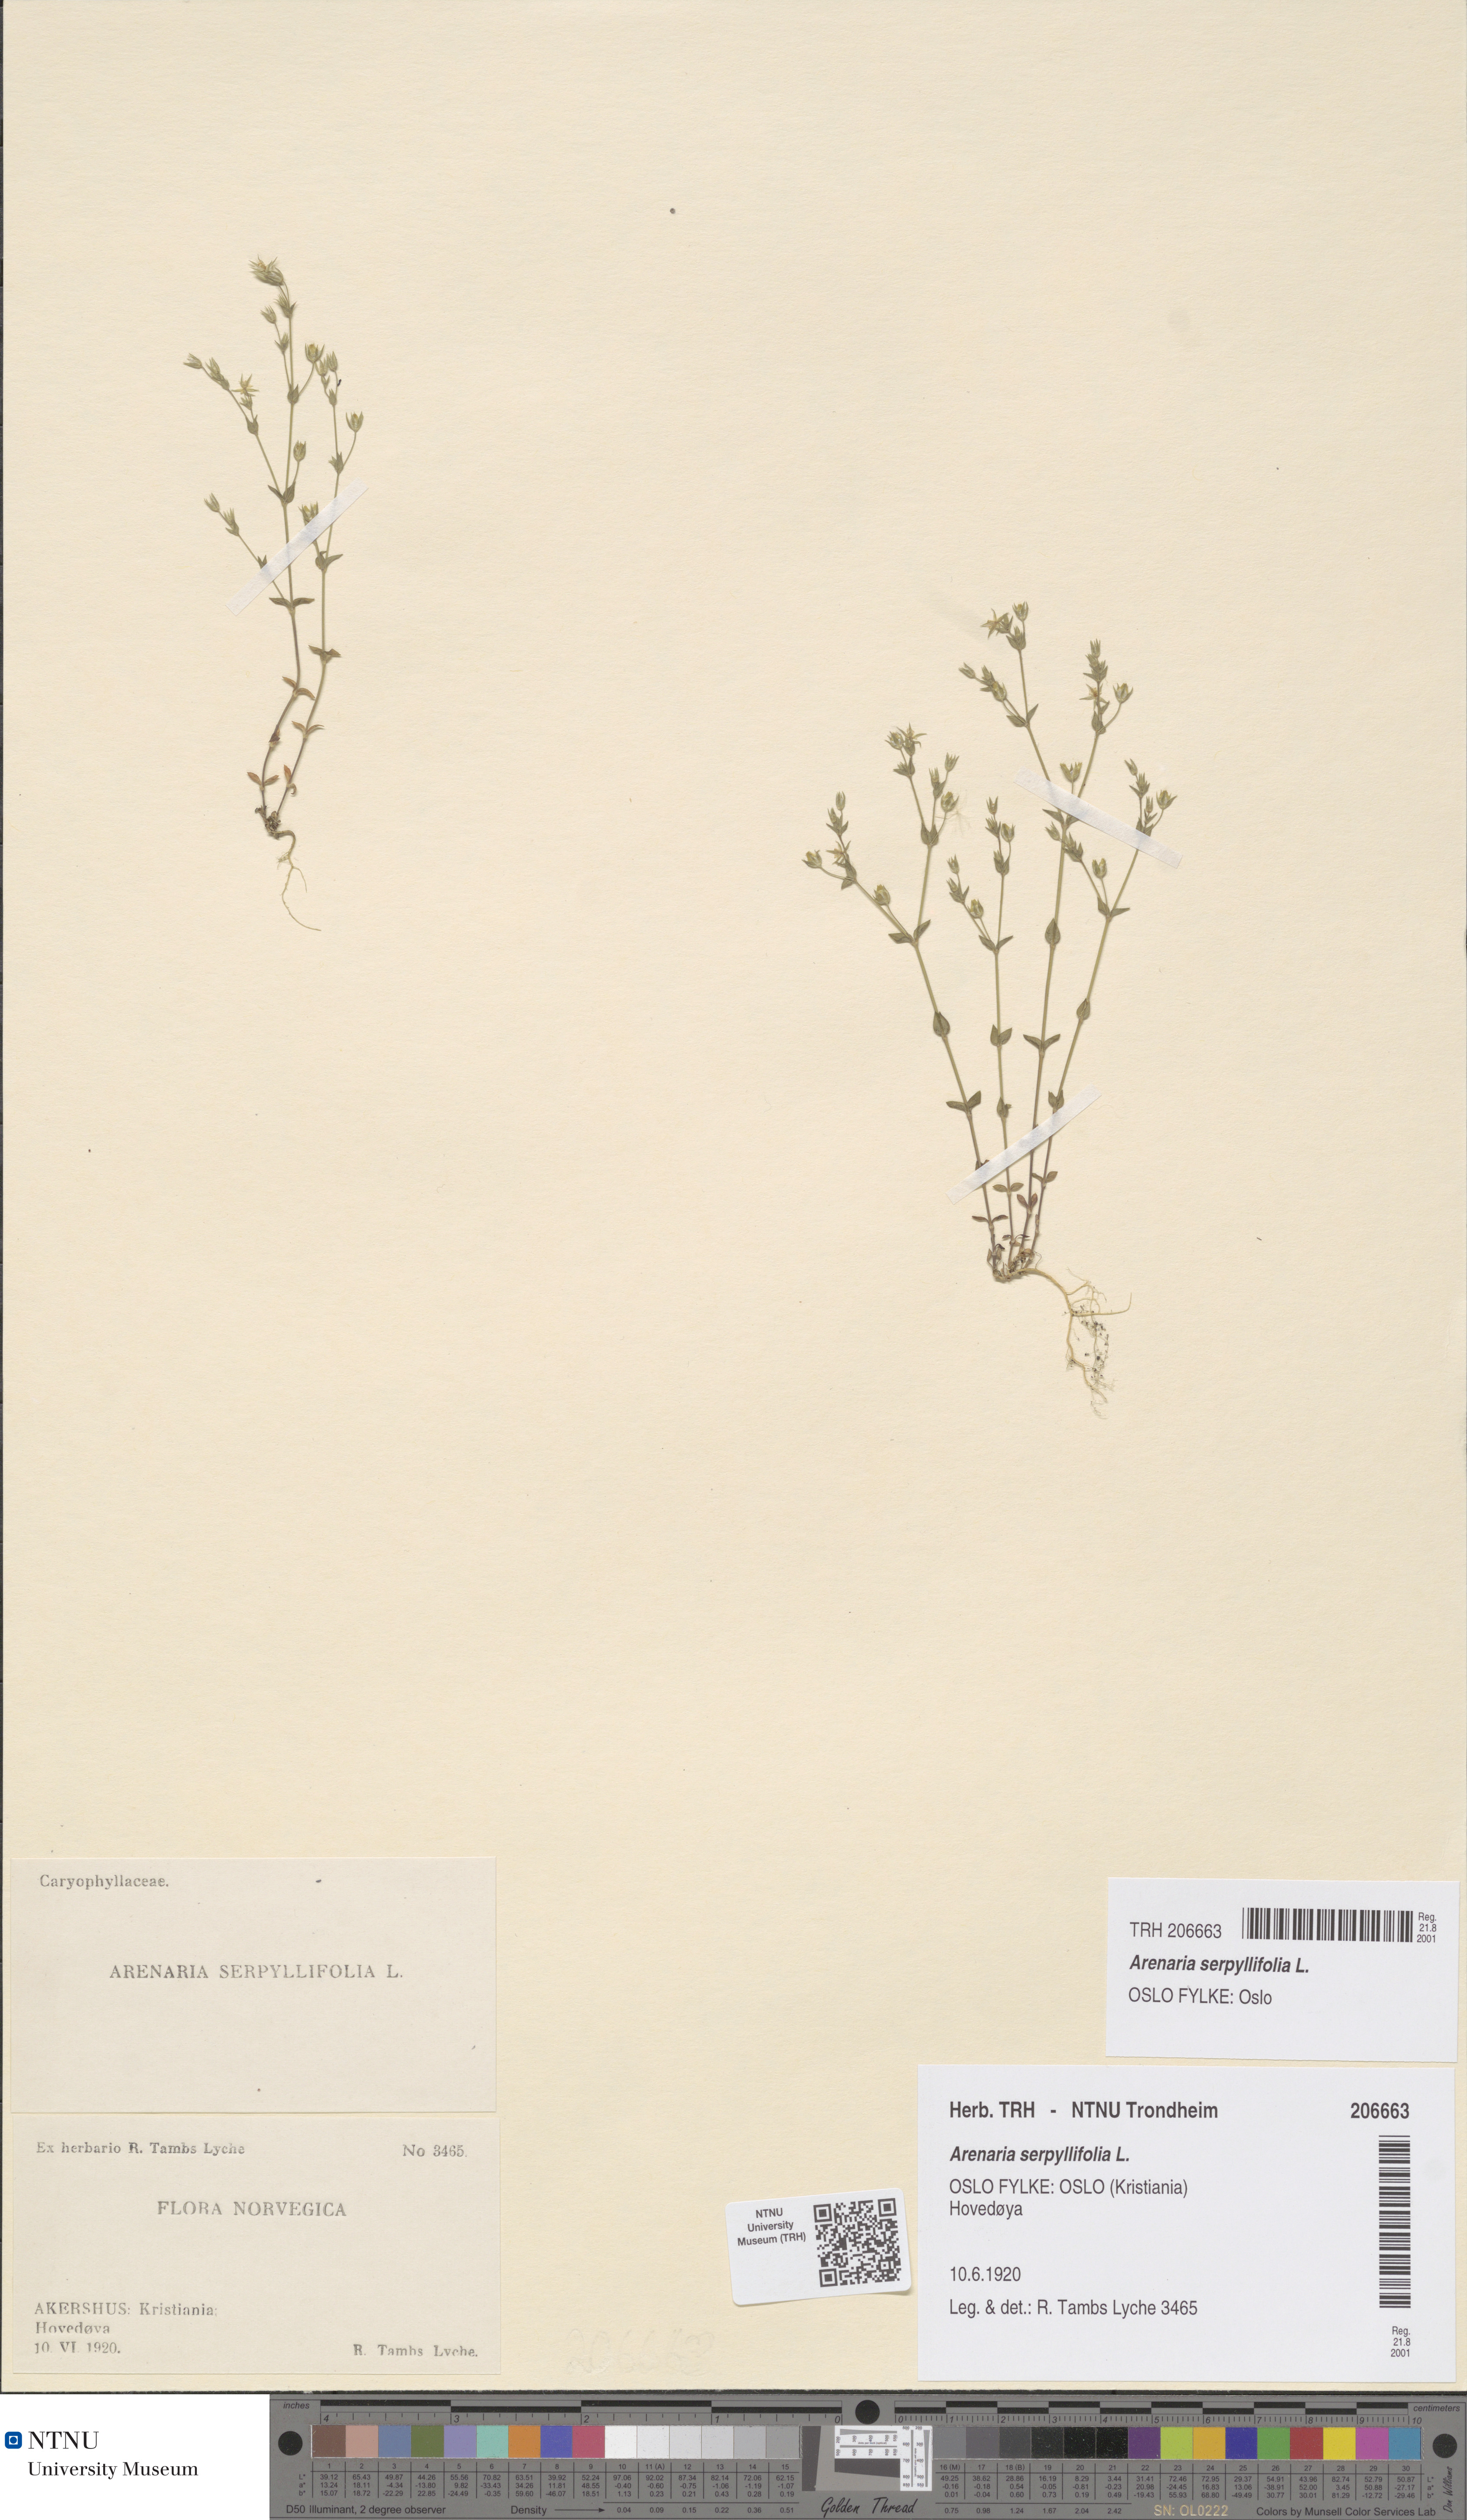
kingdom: Plantae
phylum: Tracheophyta
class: Magnoliopsida
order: Caryophyllales
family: Caryophyllaceae
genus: Arenaria
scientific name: Arenaria serpyllifolia
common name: Thyme-leaved sandwort
